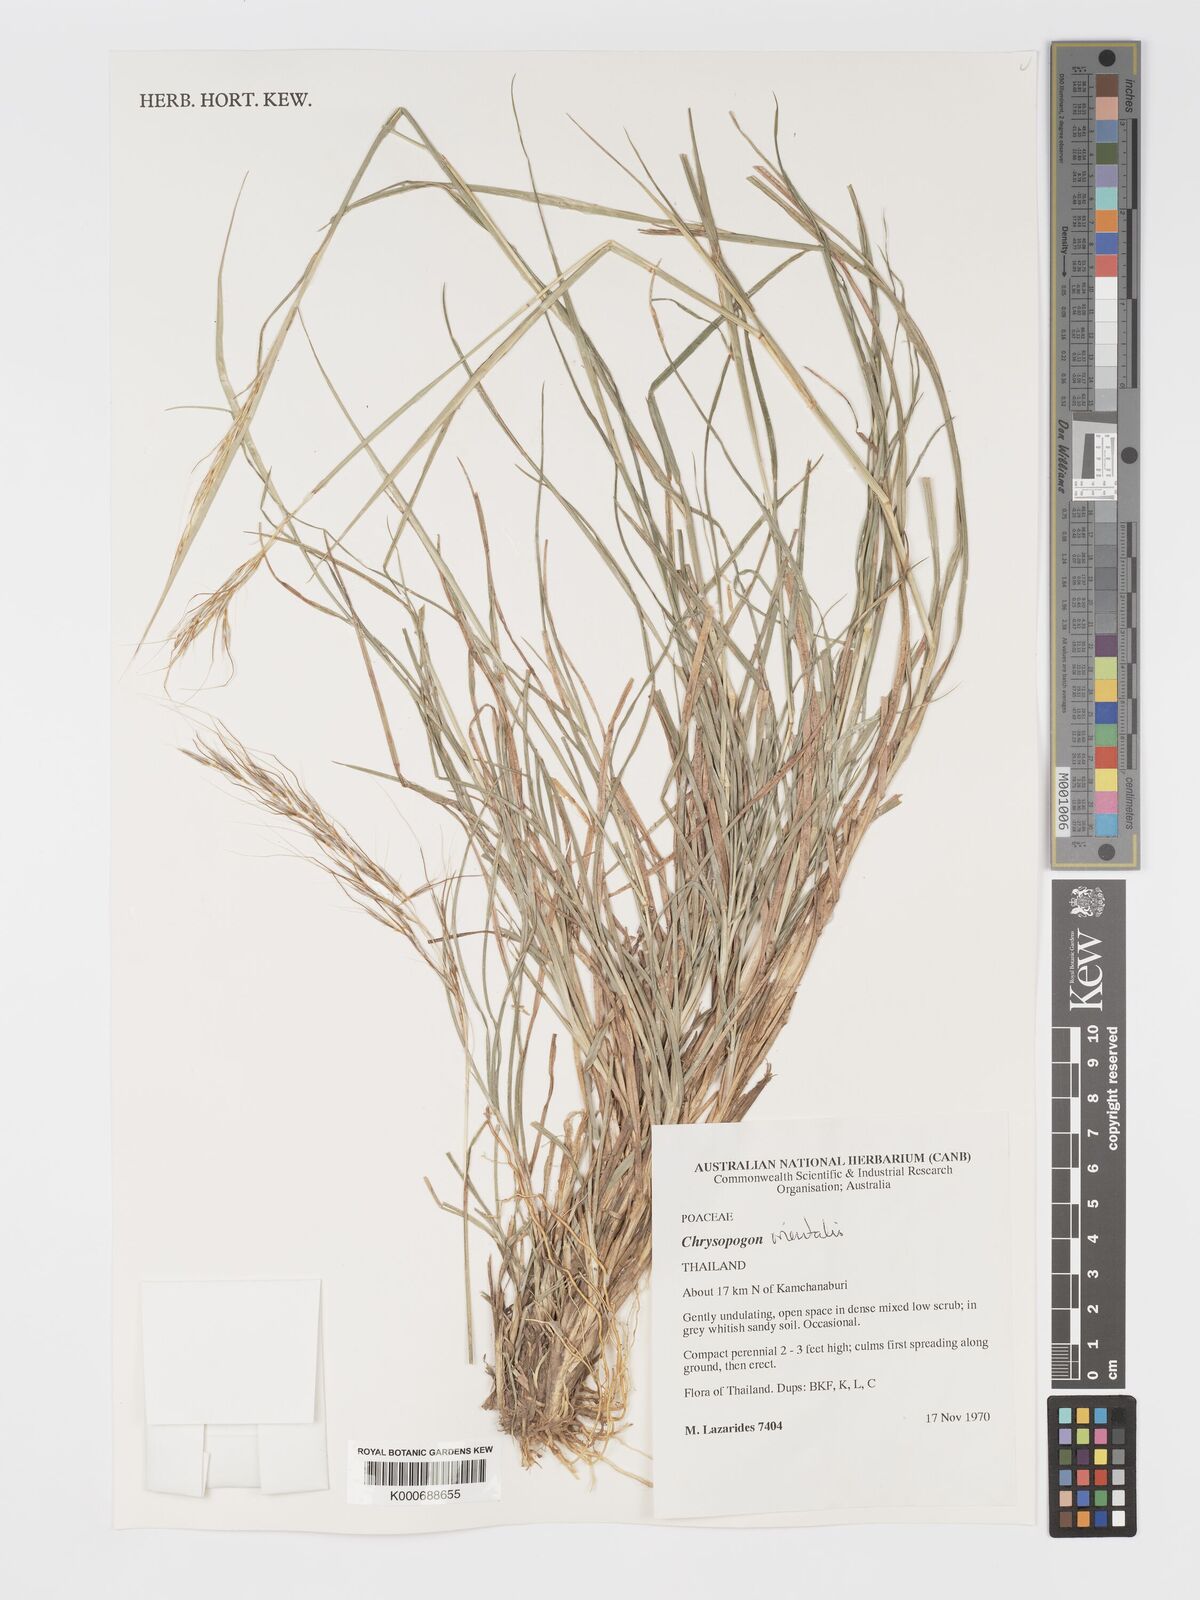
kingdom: Plantae
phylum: Tracheophyta
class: Liliopsida
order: Poales
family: Poaceae
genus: Chrysopogon
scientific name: Chrysopogon orientalis
